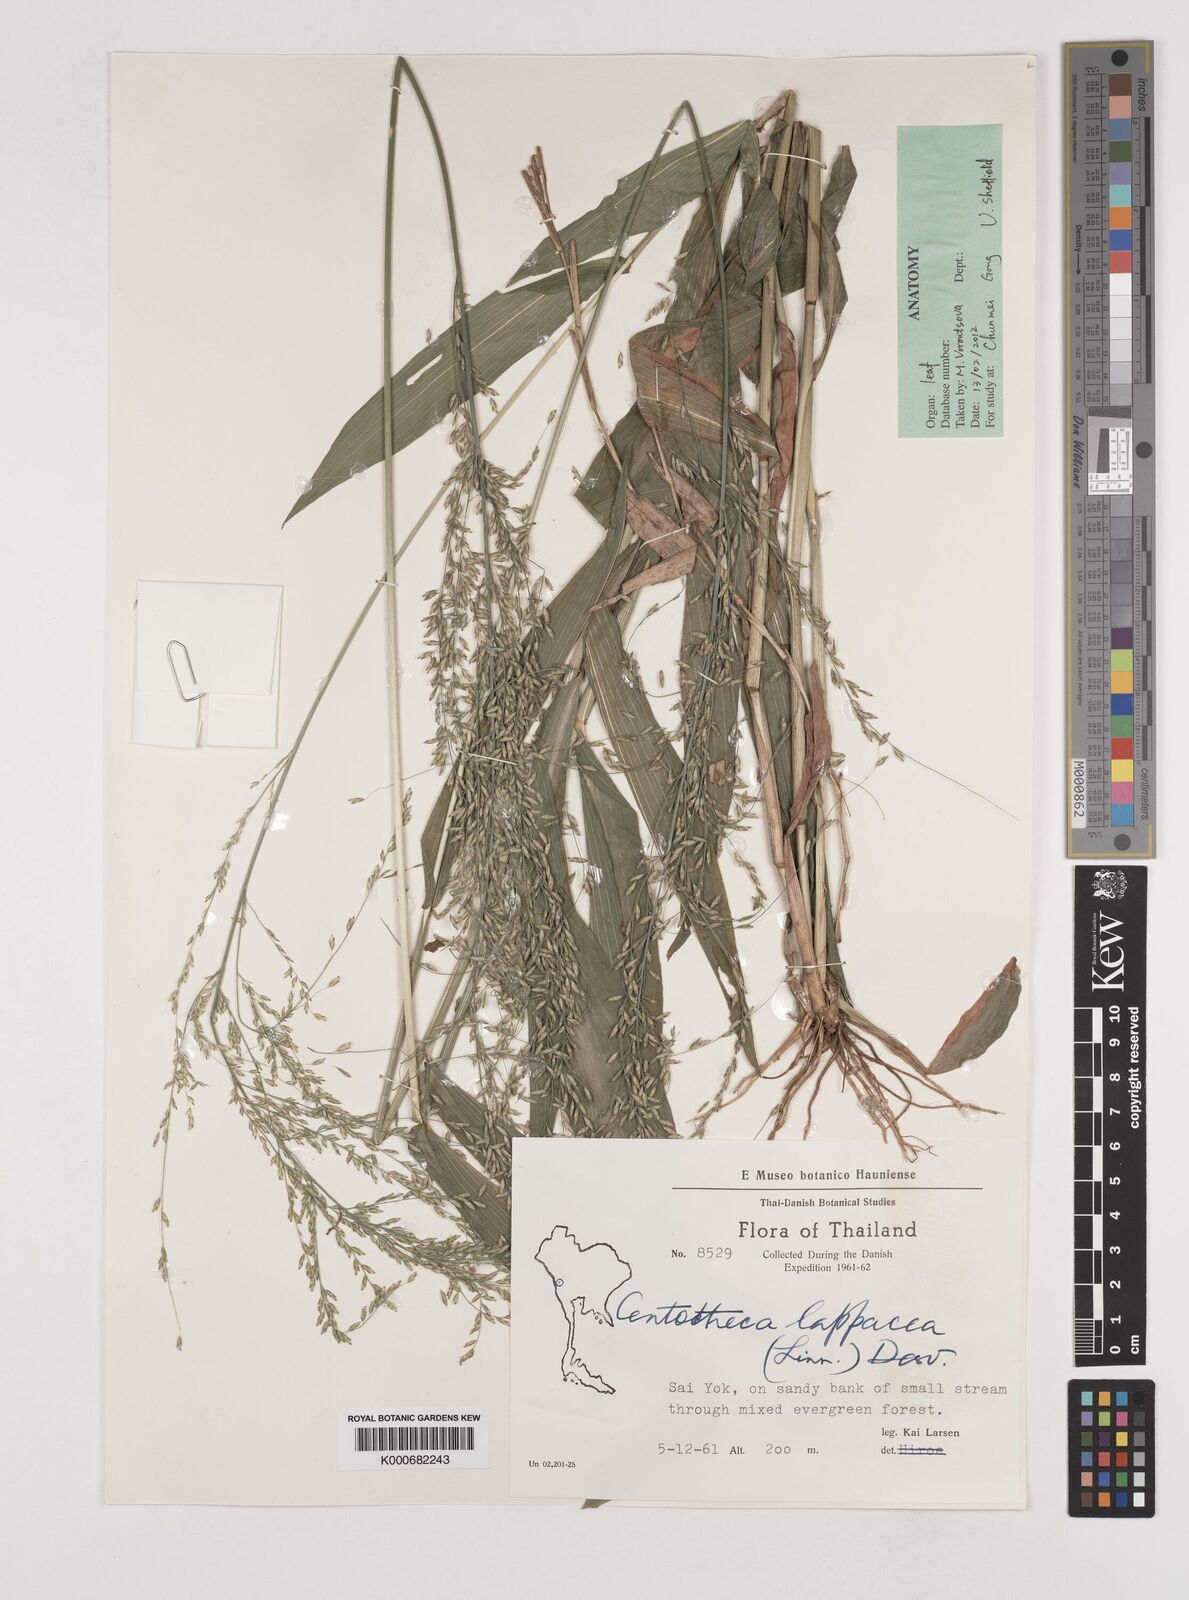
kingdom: Plantae
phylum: Tracheophyta
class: Liliopsida
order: Poales
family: Poaceae
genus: Centotheca
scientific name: Centotheca lappacea
